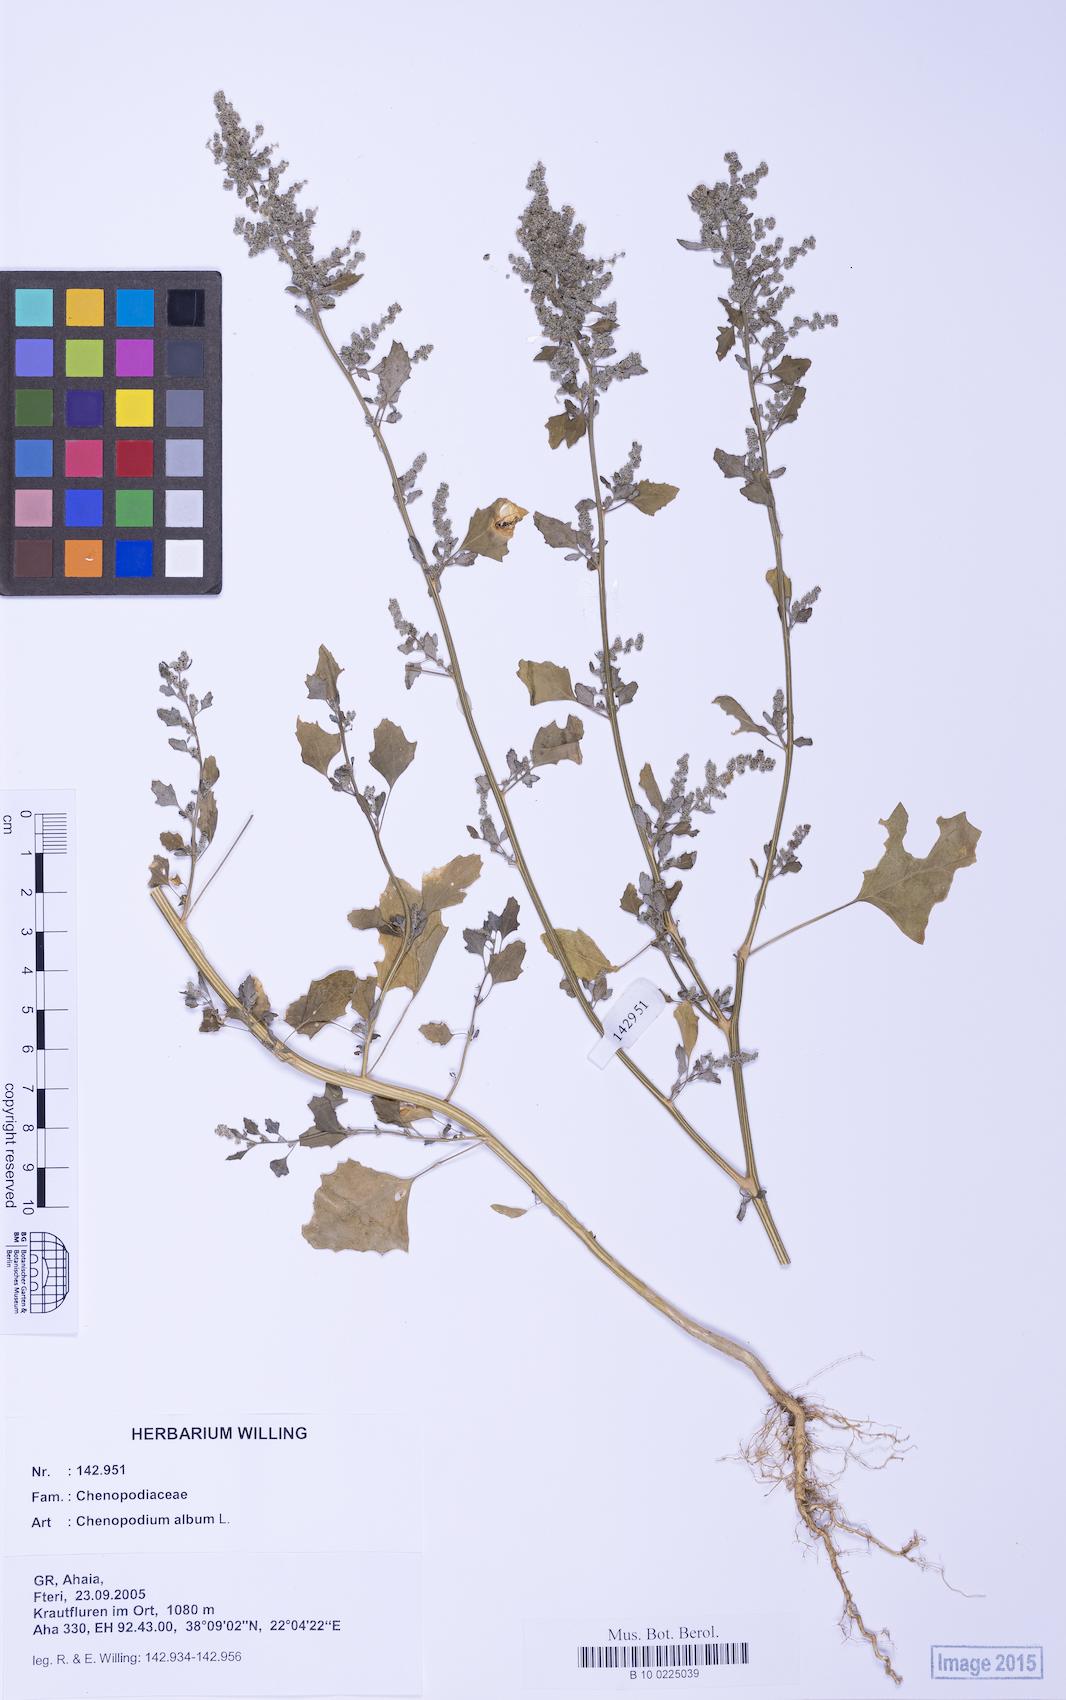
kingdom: Plantae
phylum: Tracheophyta
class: Magnoliopsida
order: Caryophyllales
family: Amaranthaceae
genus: Chenopodium
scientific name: Chenopodium album
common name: Fat-hen
